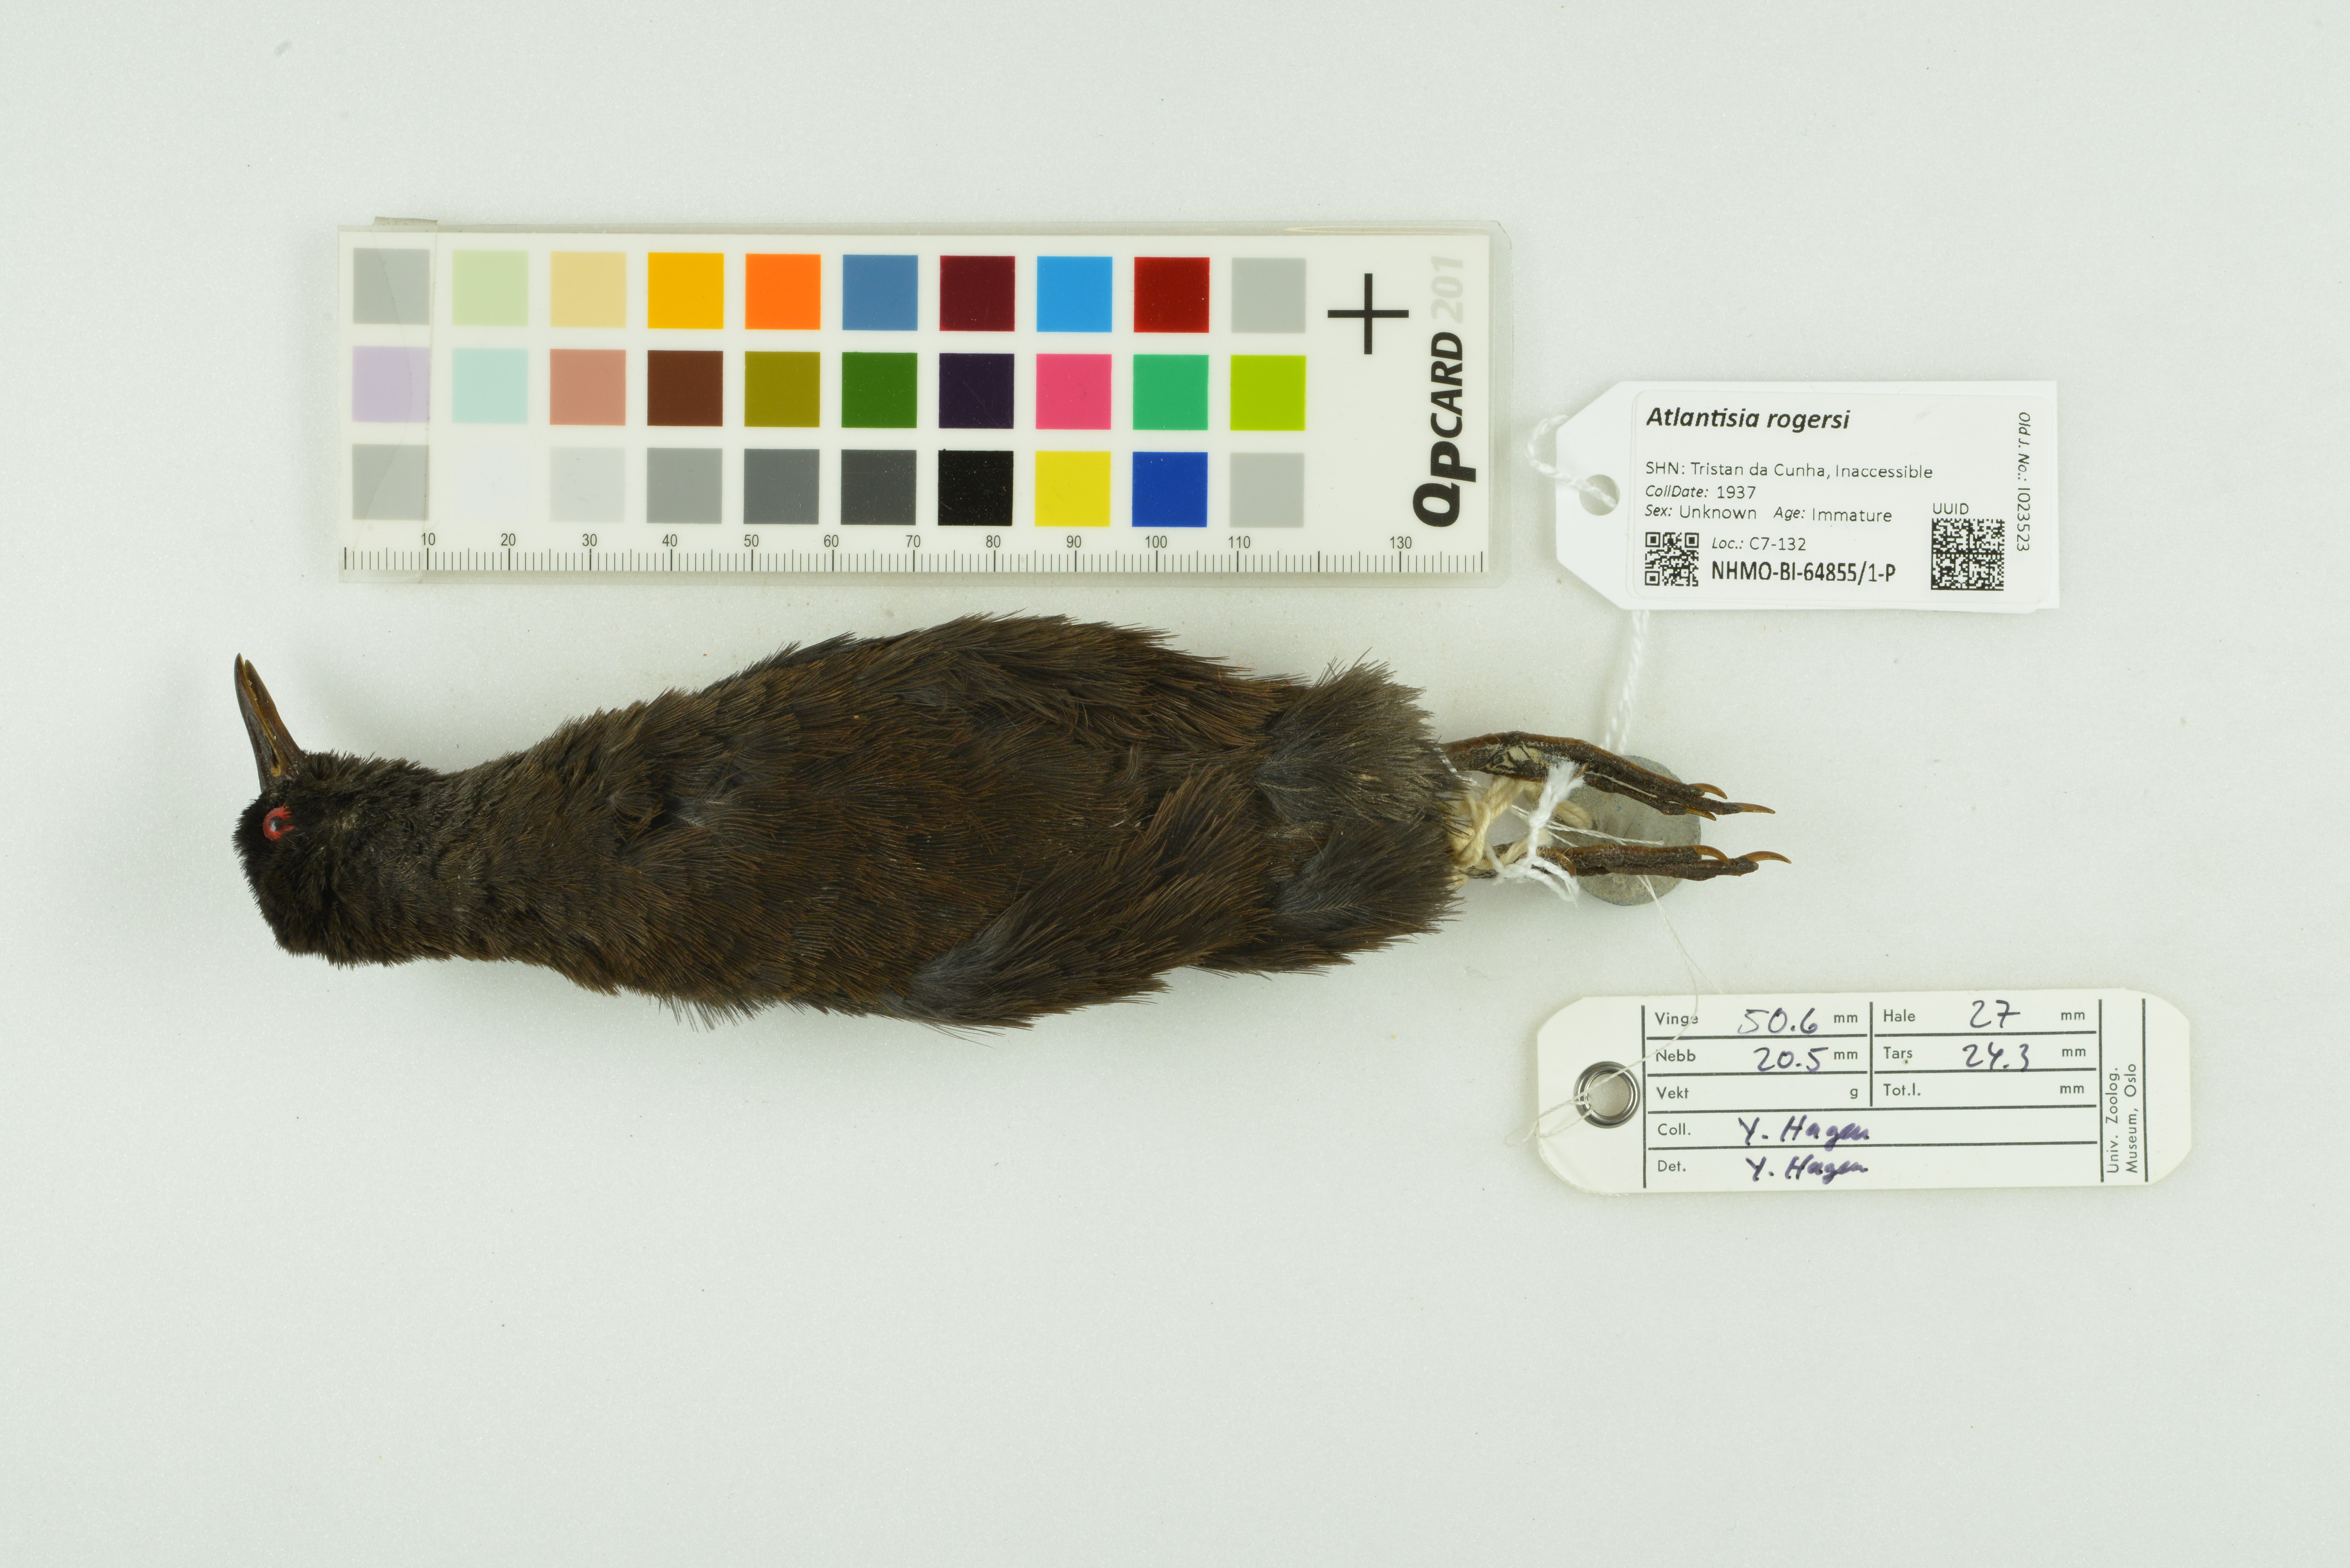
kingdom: Animalia
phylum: Chordata
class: Aves
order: Gruiformes
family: Rallidae
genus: Atlantisia
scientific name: Atlantisia rogersi
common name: Inaccessible island rail
